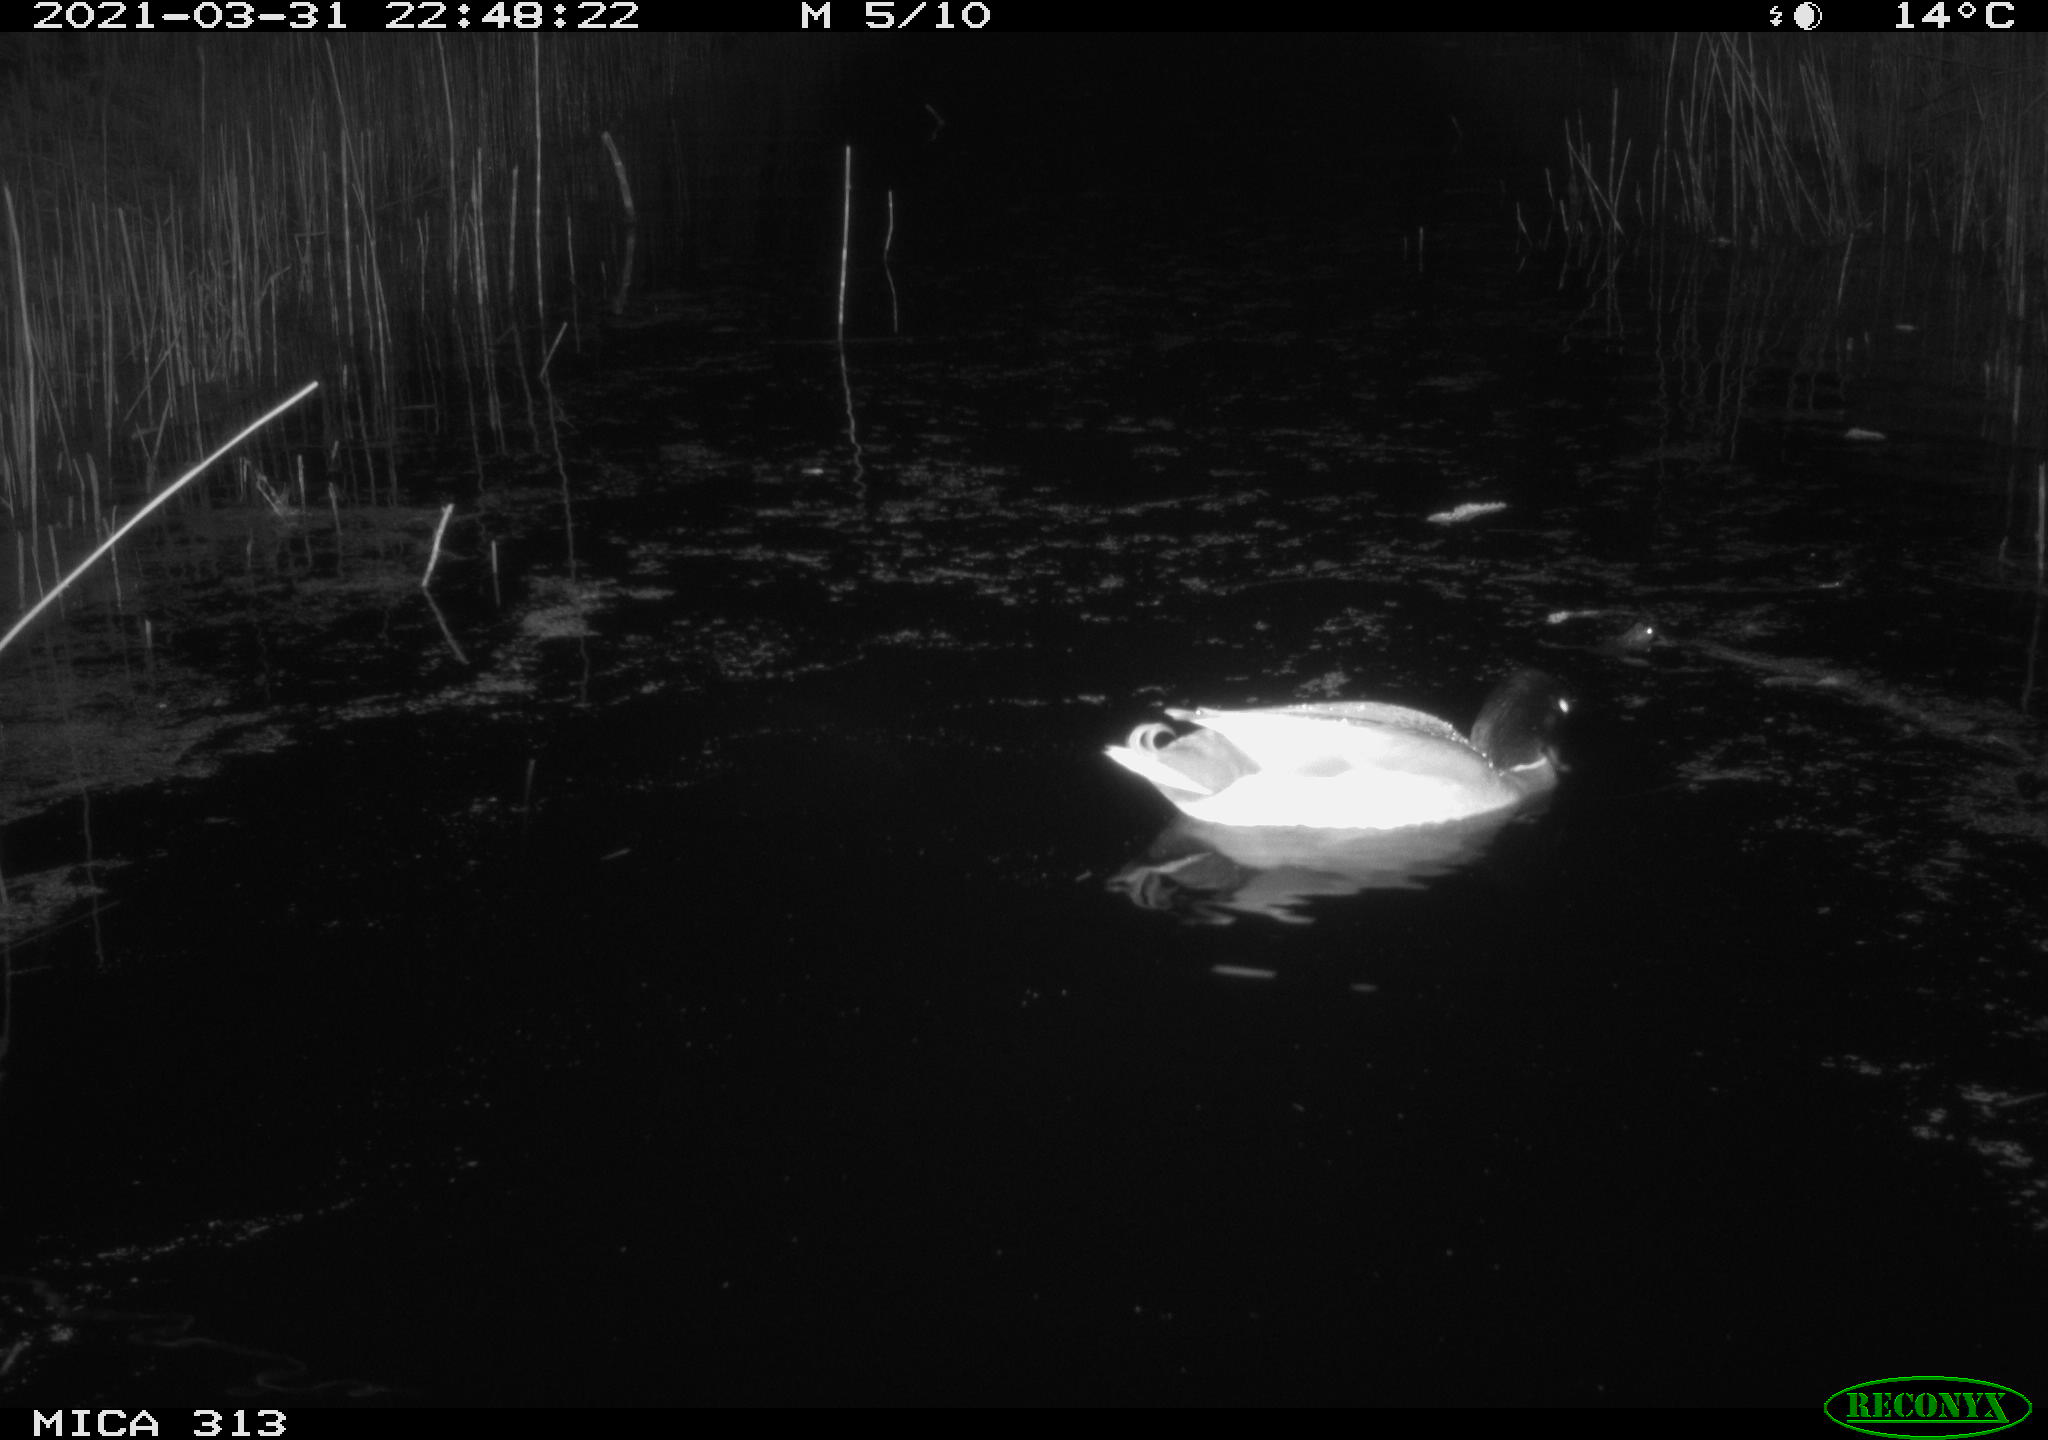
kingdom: Animalia
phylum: Chordata
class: Aves
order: Gruiformes
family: Rallidae
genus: Gallinula
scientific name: Gallinula chloropus
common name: Common moorhen
